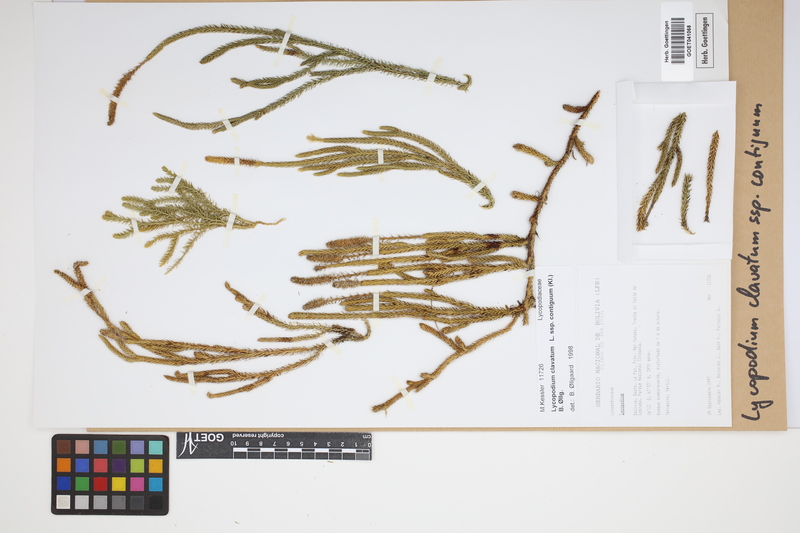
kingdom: Plantae
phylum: Tracheophyta
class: Lycopodiopsida
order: Lycopodiales
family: Lycopodiaceae
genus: Lycopodium
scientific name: Lycopodium clavatum
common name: Stag's-horn clubmoss
